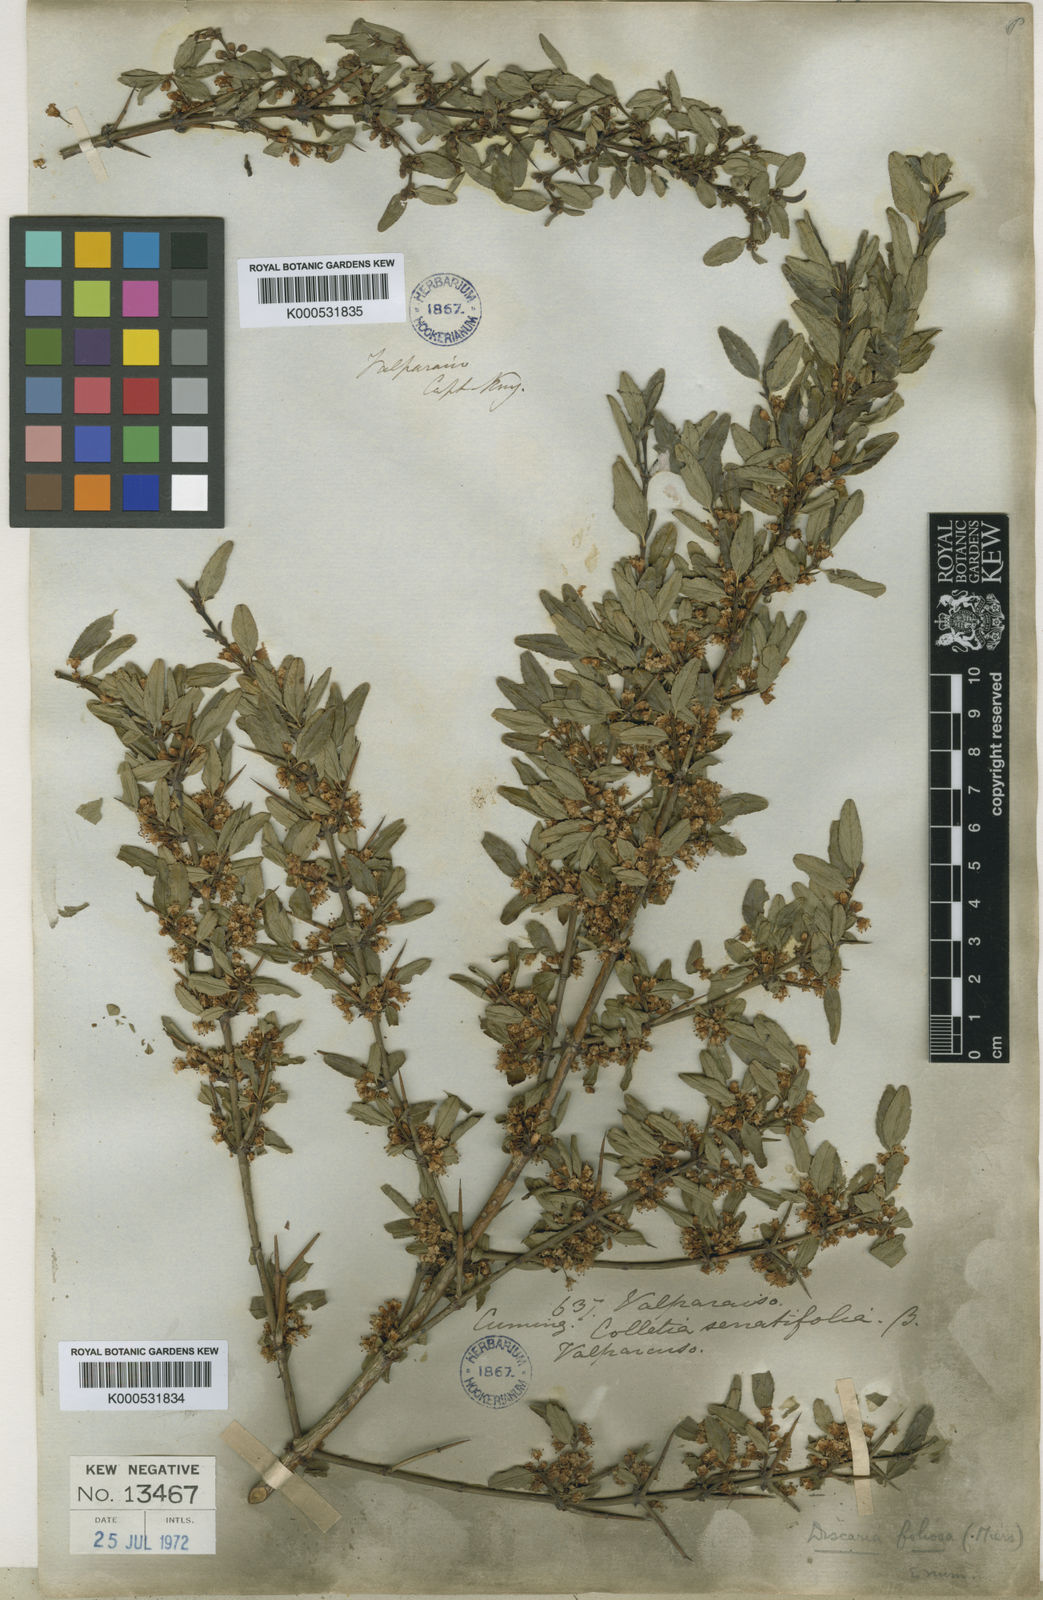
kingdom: Plantae
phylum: Tracheophyta
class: Magnoliopsida
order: Rosales
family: Rhamnaceae
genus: Discaria
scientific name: Discaria chacaye
